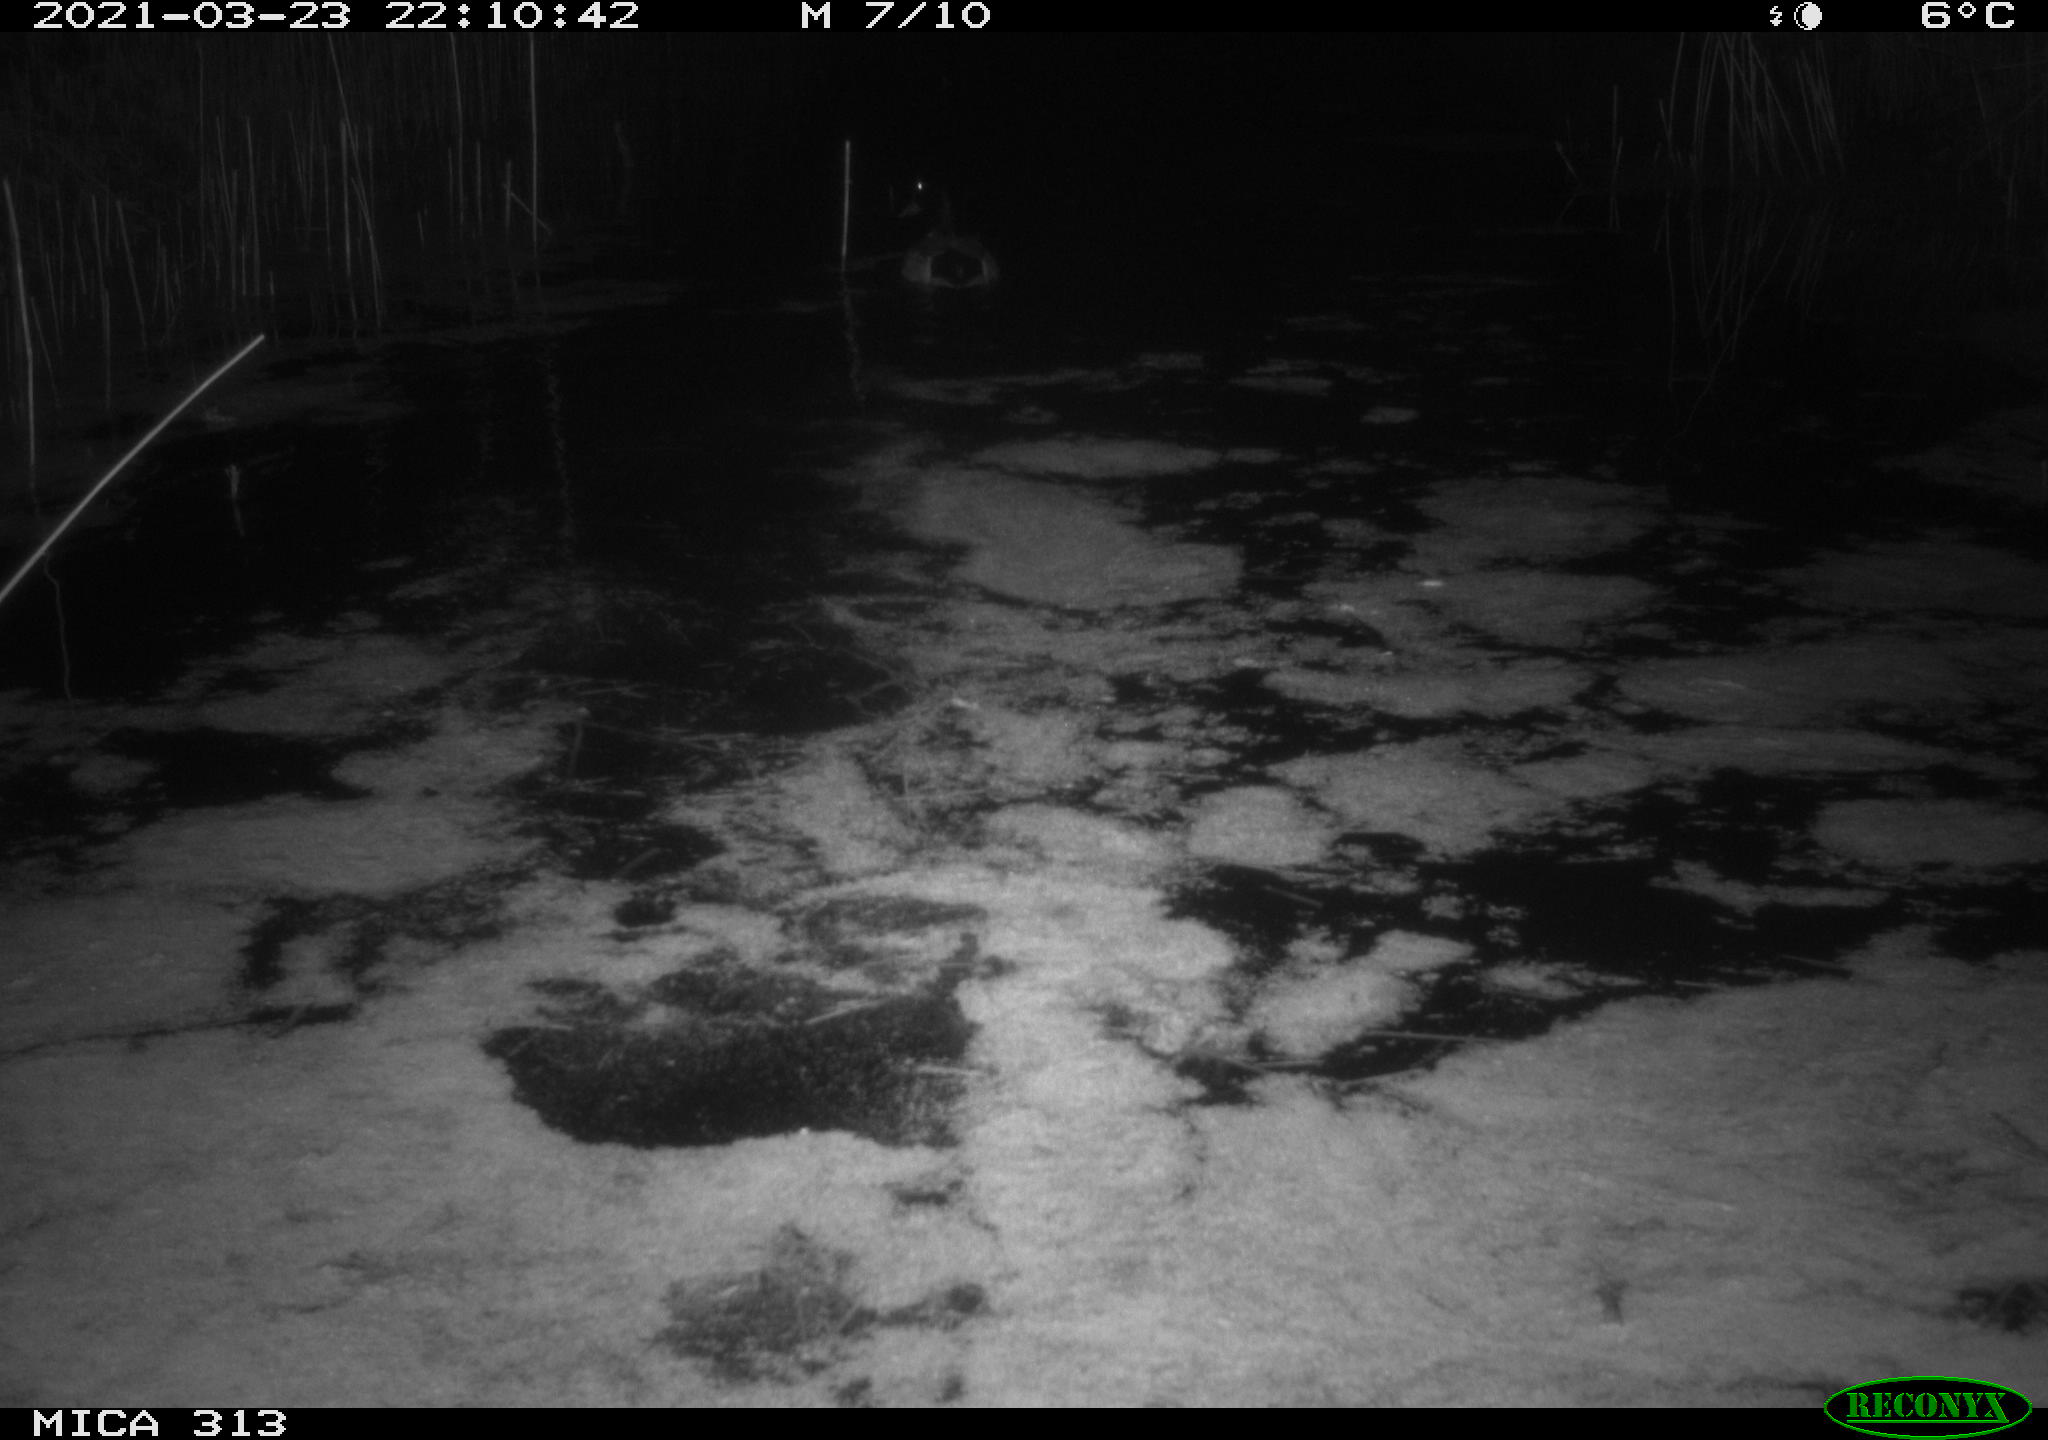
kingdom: Animalia
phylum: Chordata
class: Aves
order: Anseriformes
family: Anatidae
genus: Anas
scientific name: Anas platyrhynchos
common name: Mallard
